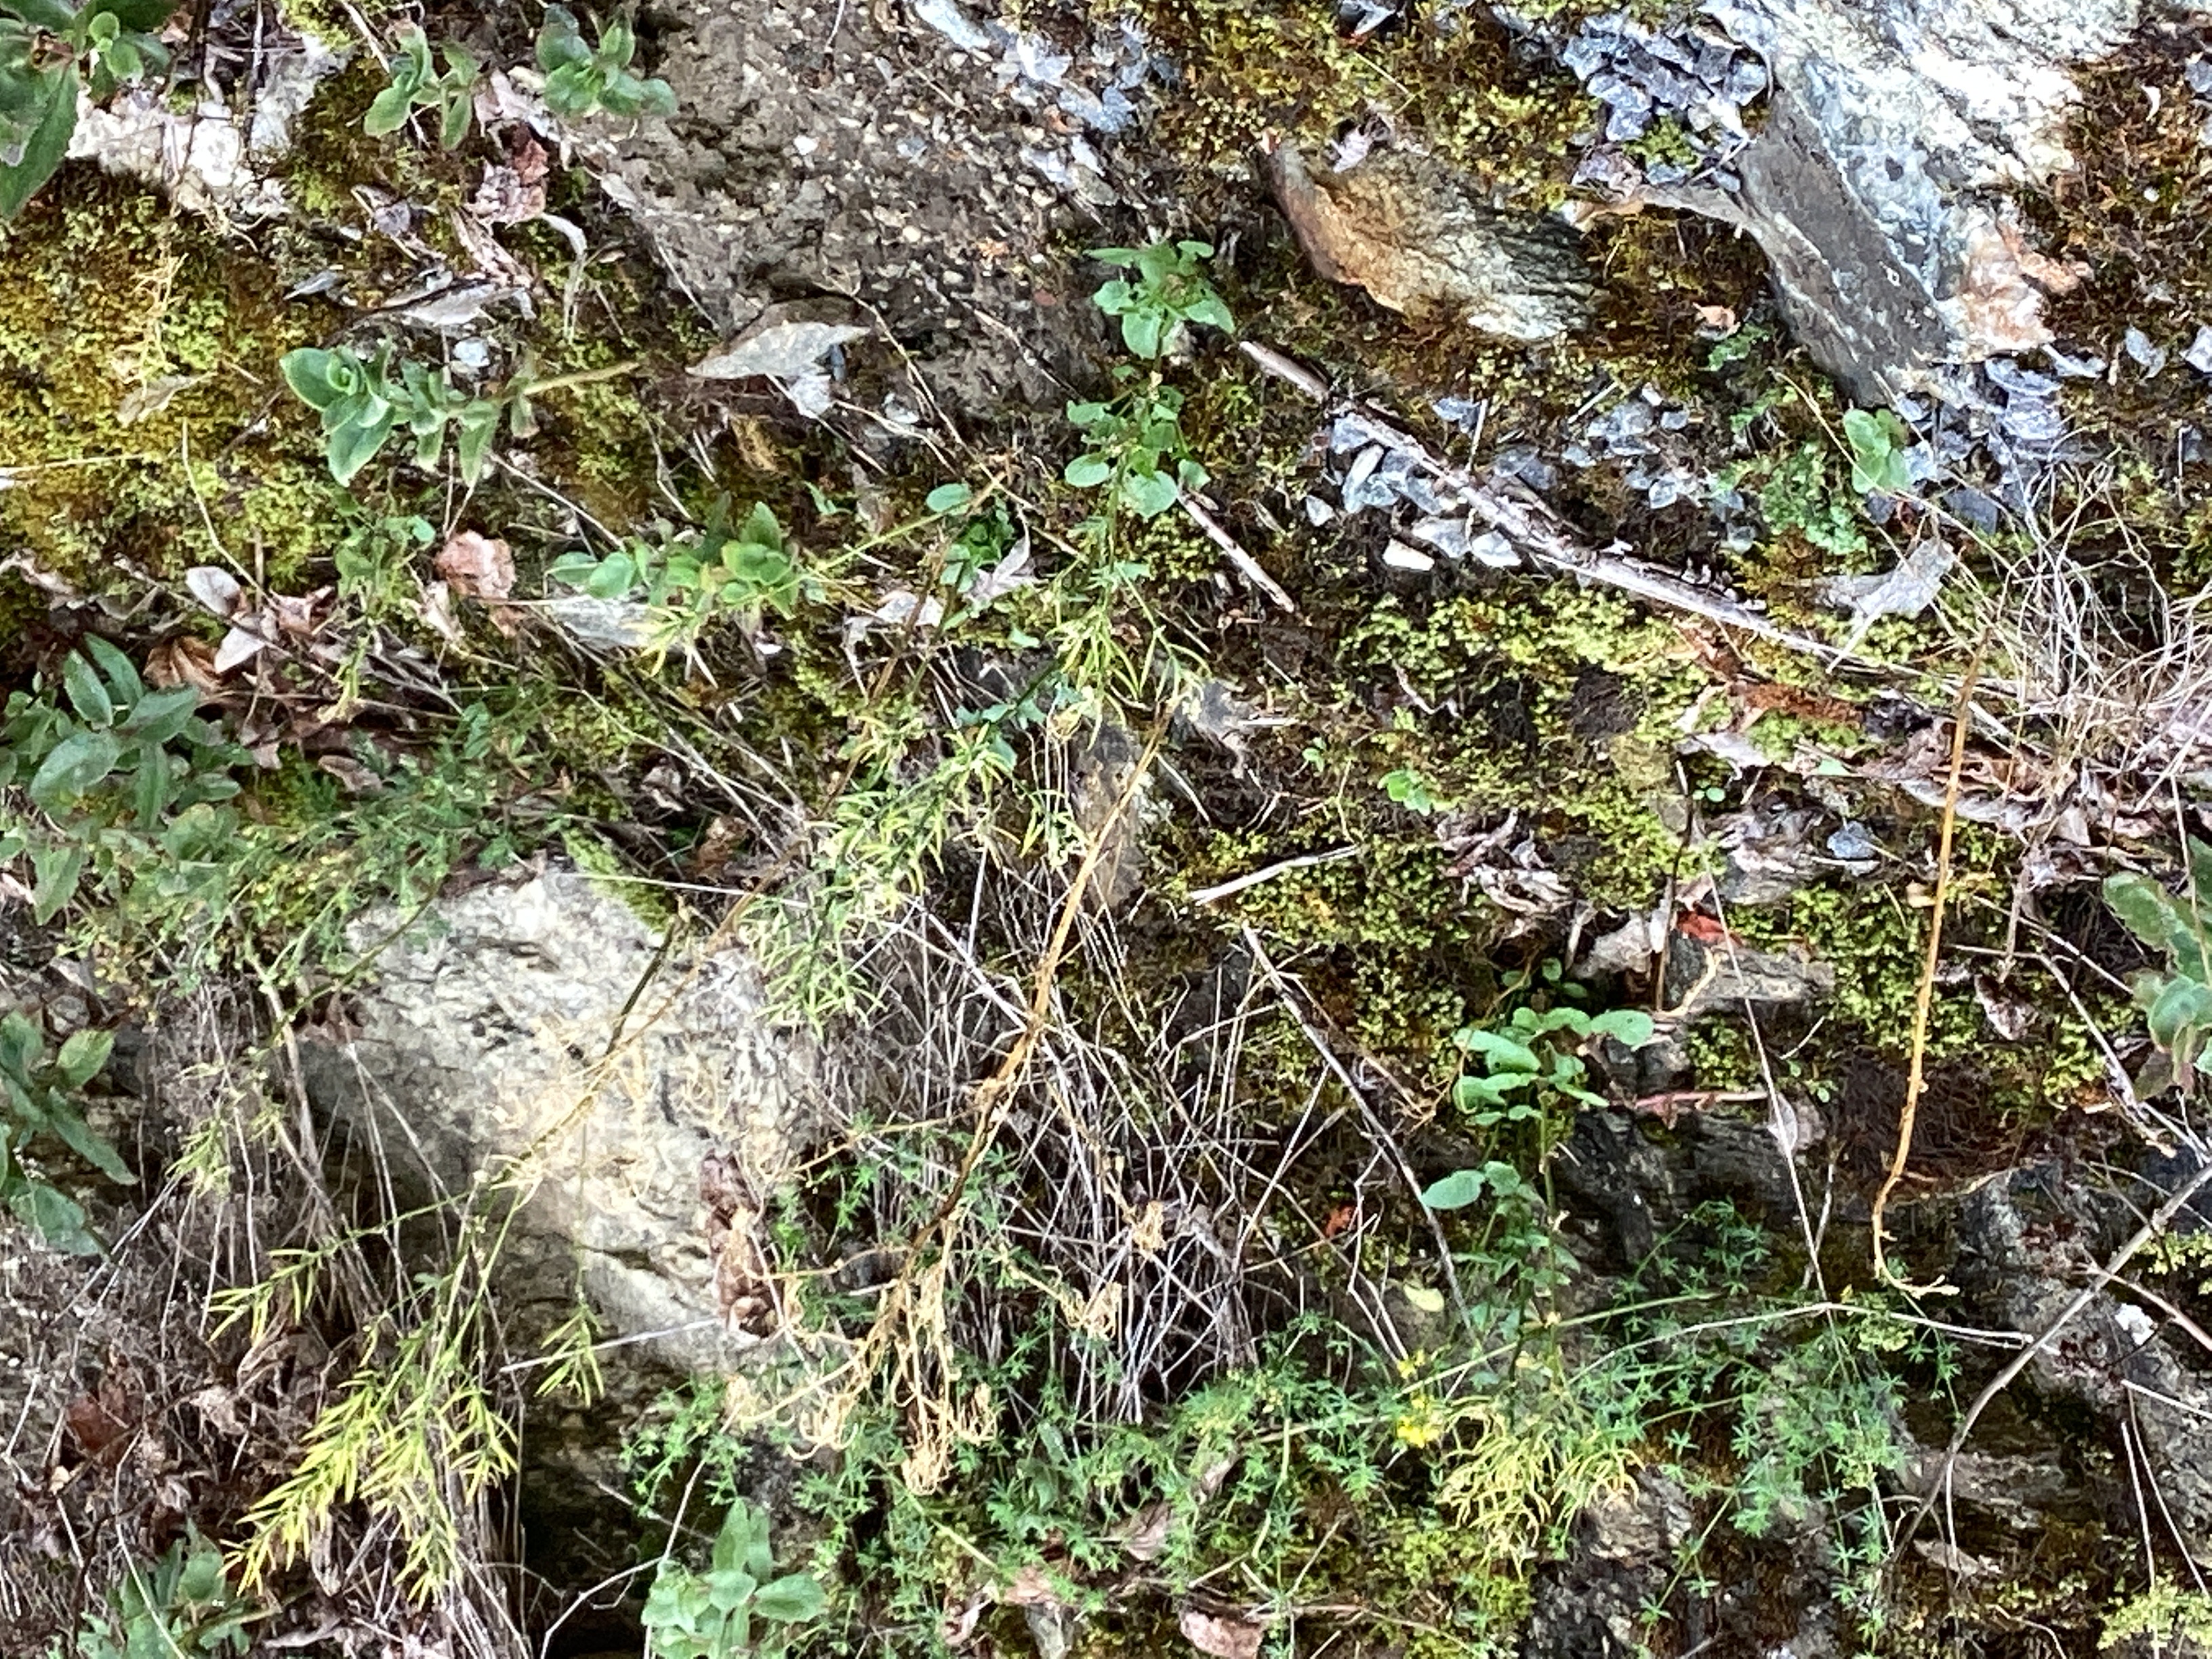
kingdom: Plantae
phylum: Tracheophyta
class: Magnoliopsida
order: Brassicales
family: Brassicaceae
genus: Barbarea
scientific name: Barbarea vulgaris
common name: vinterkarse
